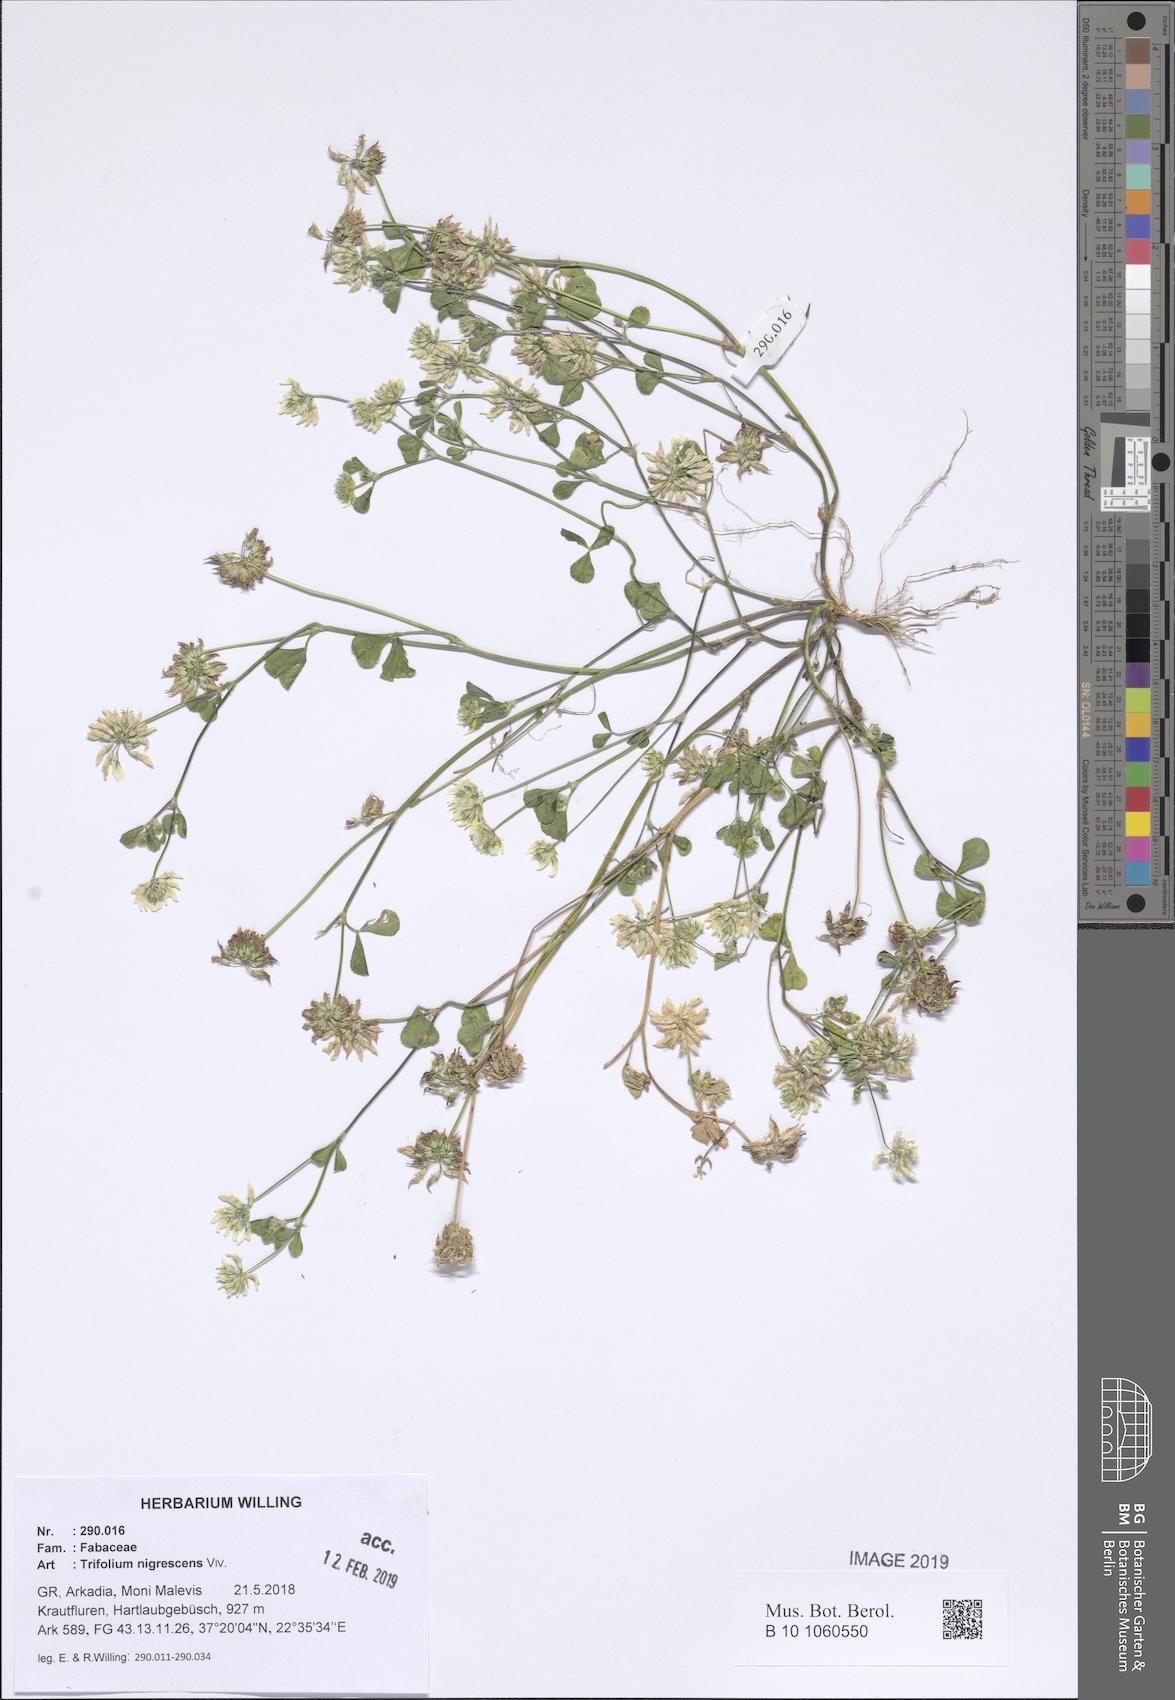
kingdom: Plantae
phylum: Tracheophyta
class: Magnoliopsida
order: Fabales
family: Fabaceae
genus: Trifolium
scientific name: Trifolium nigrescens
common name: Small white clover
